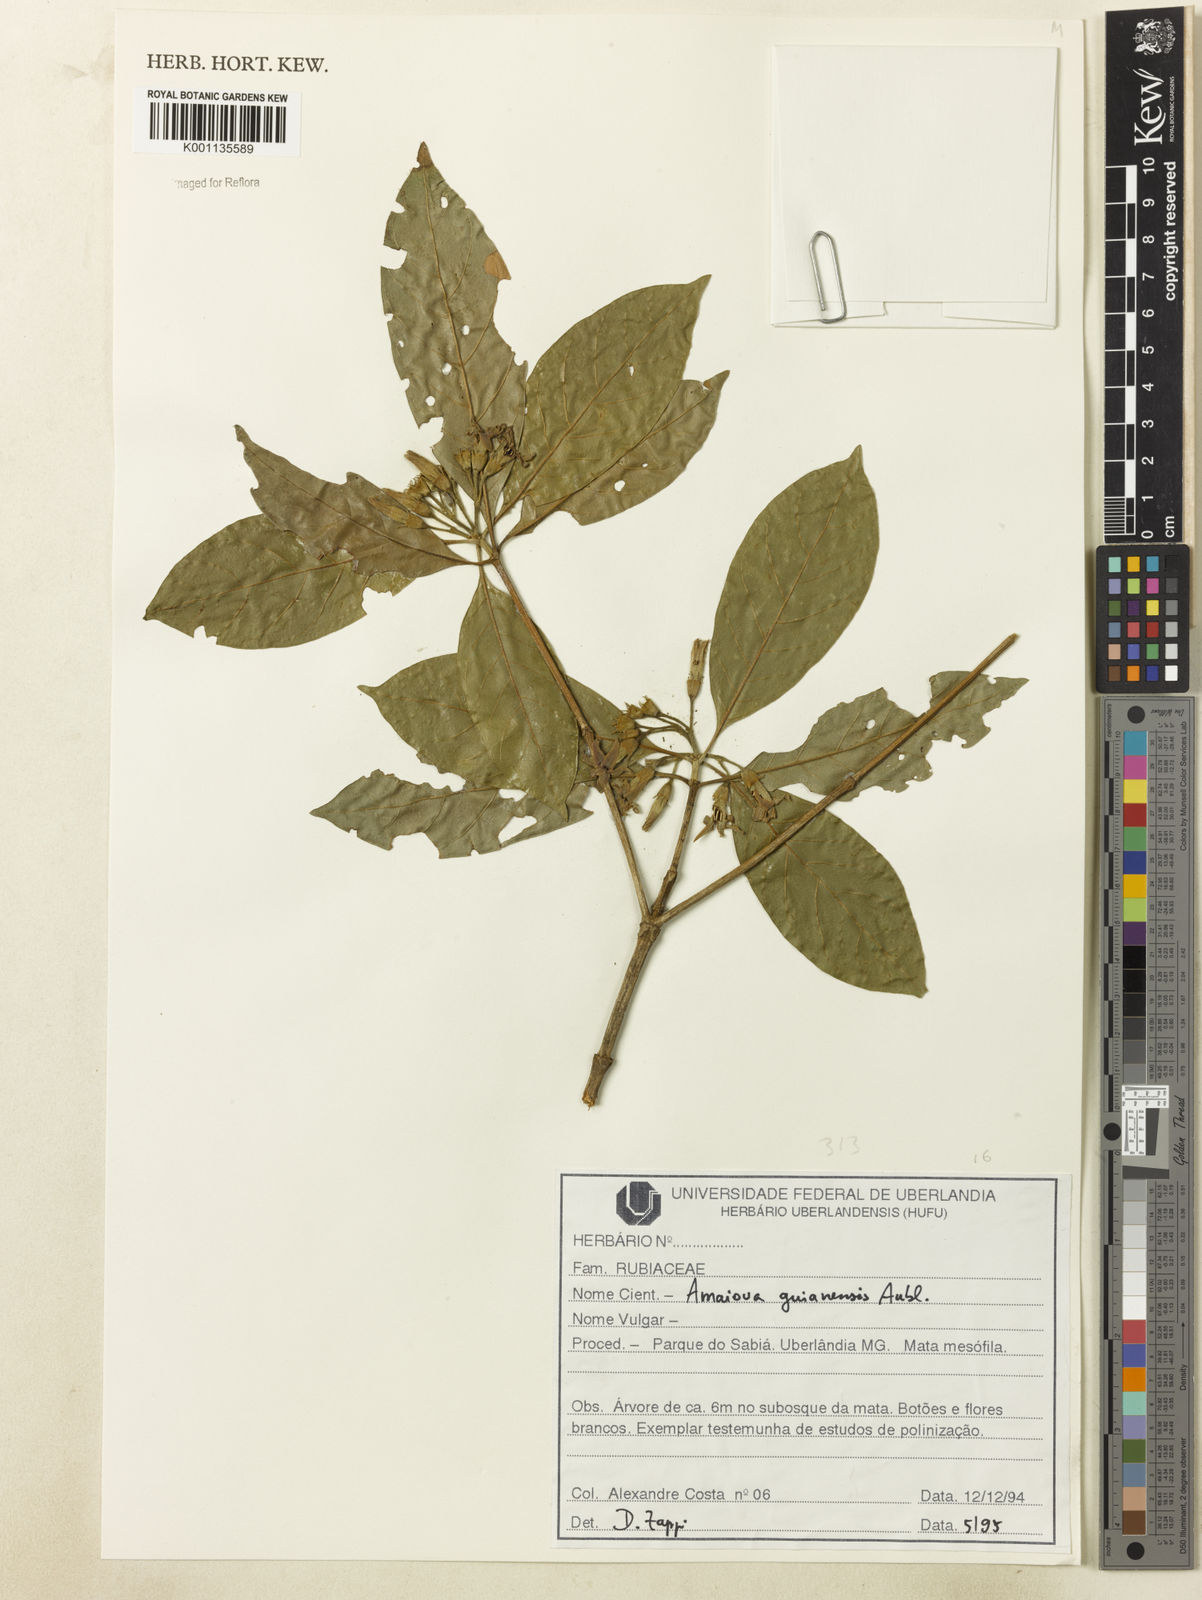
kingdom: Plantae
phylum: Tracheophyta
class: Magnoliopsida
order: Gentianales
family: Rubiaceae
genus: Amaioua
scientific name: Amaioua intermedia
